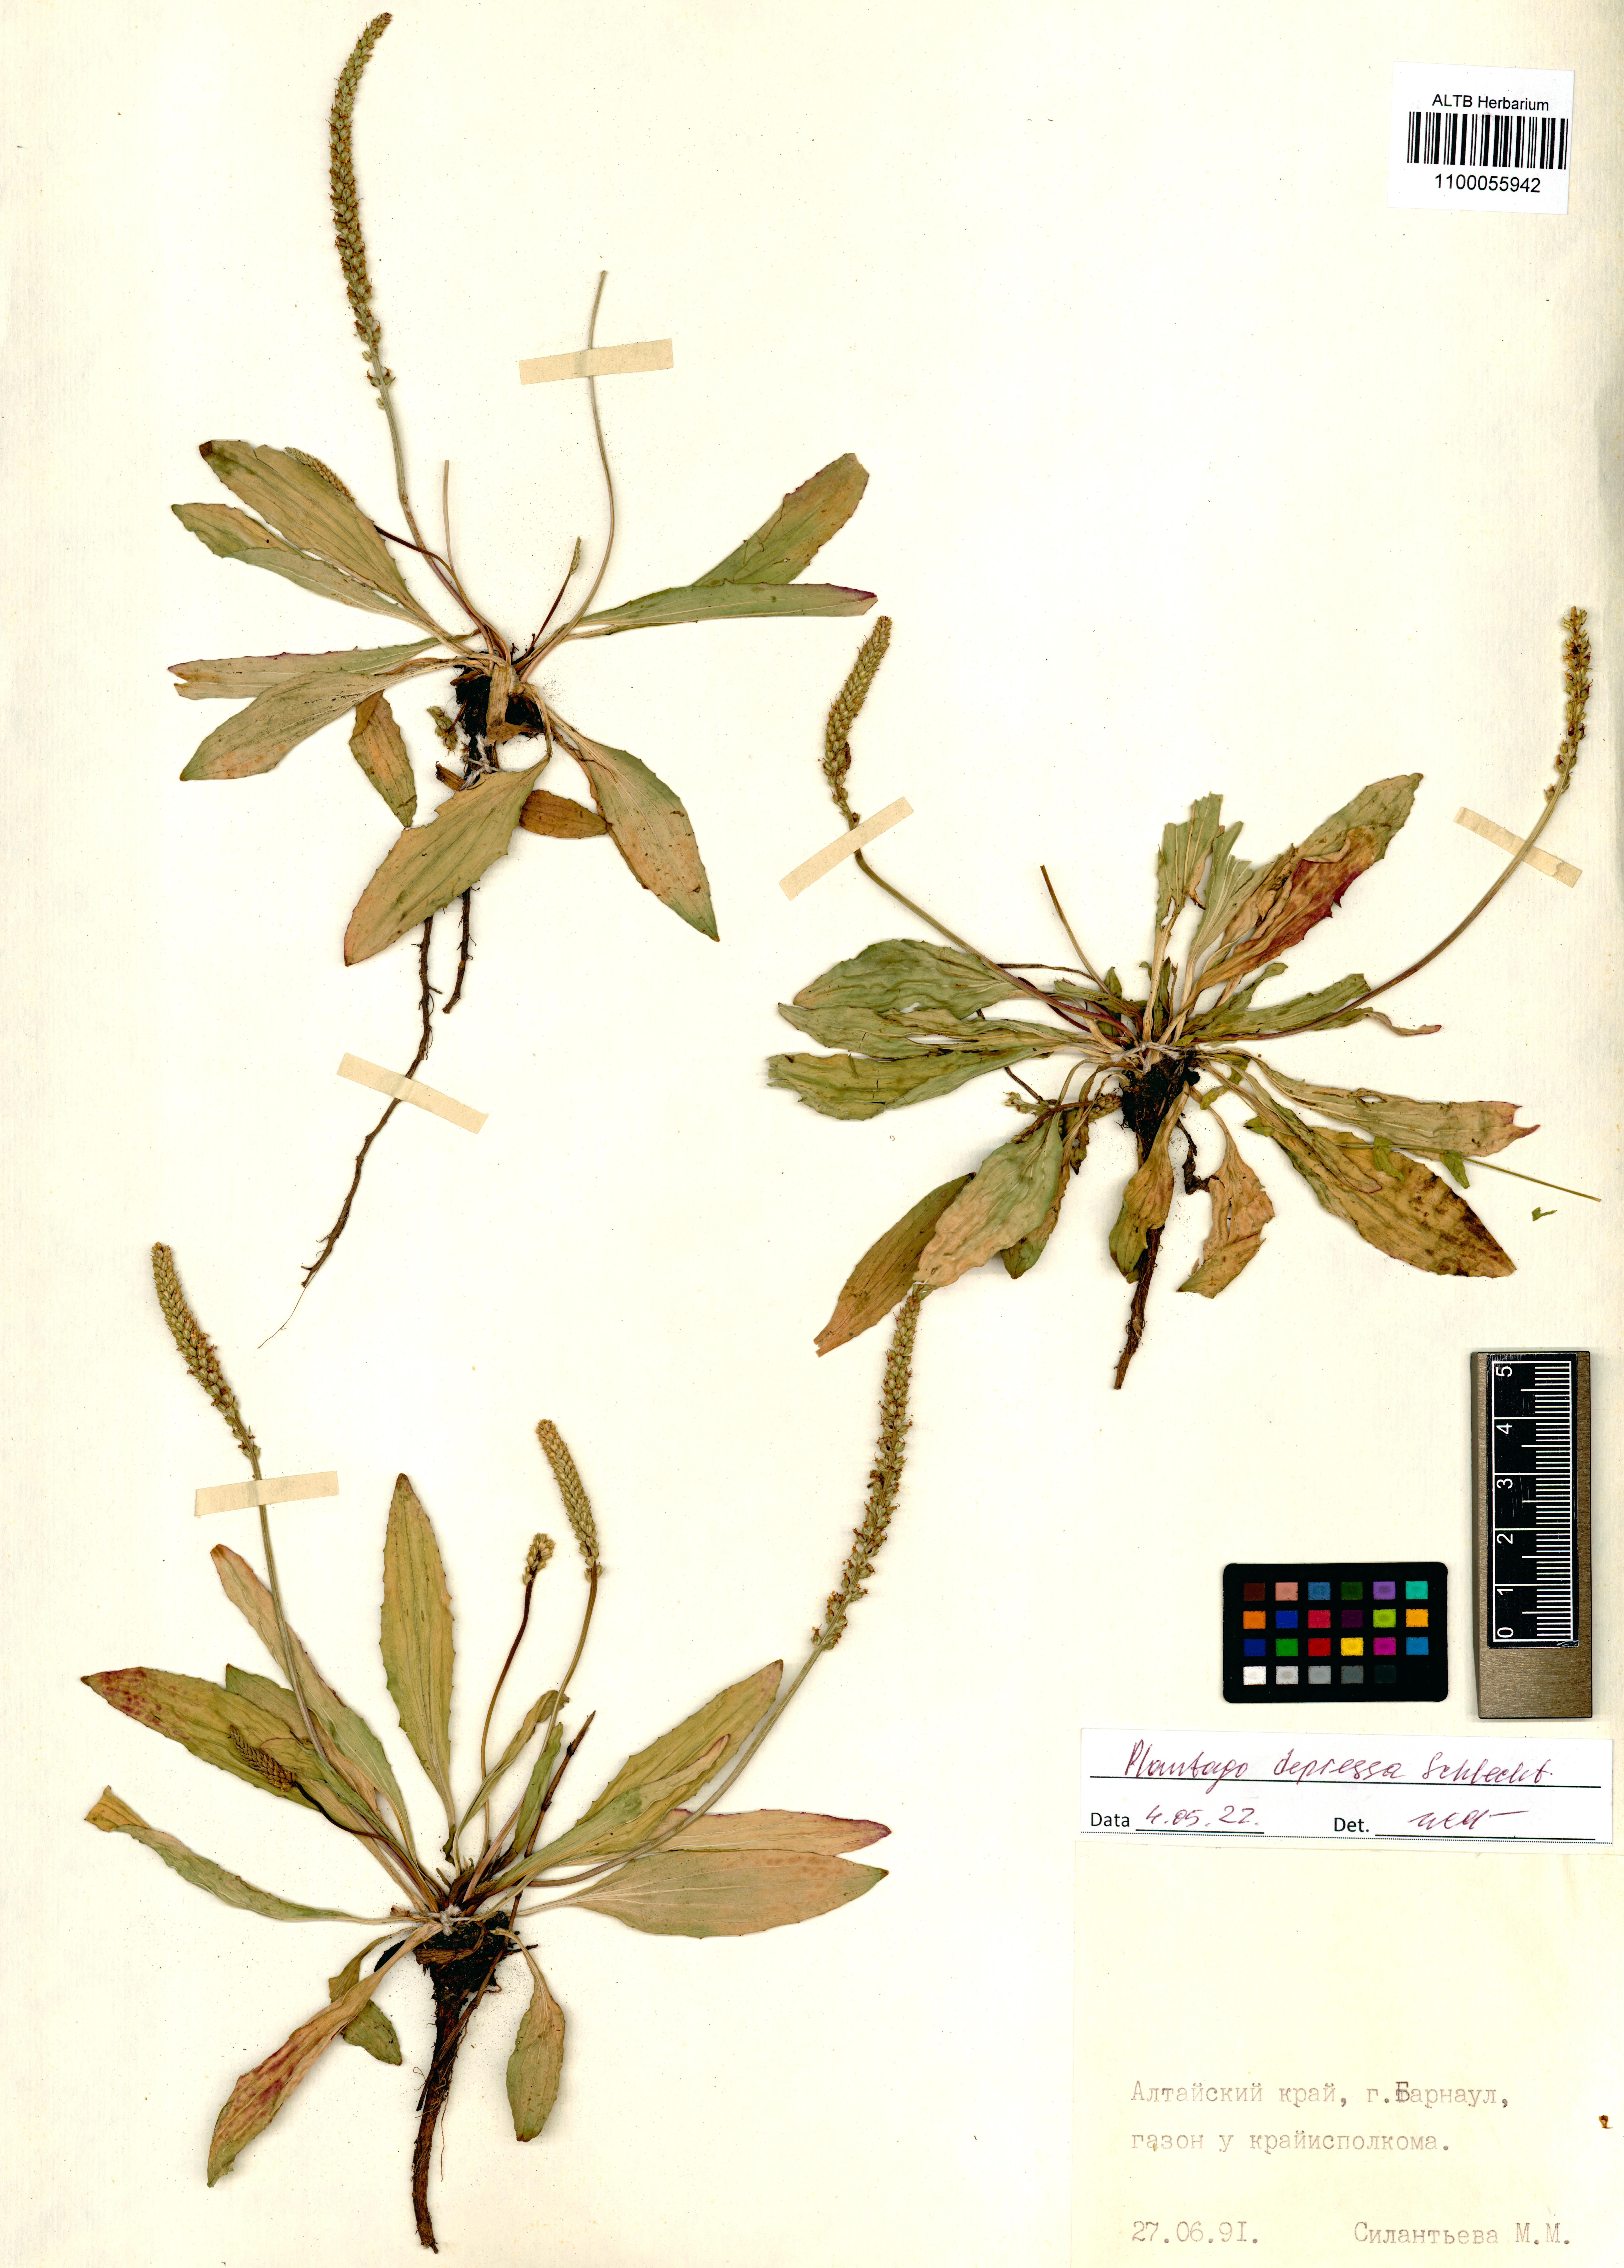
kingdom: Plantae
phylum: Tracheophyta
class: Magnoliopsida
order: Lamiales
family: Plantaginaceae
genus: Plantago
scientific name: Plantago depressa
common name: Depressed plantain
